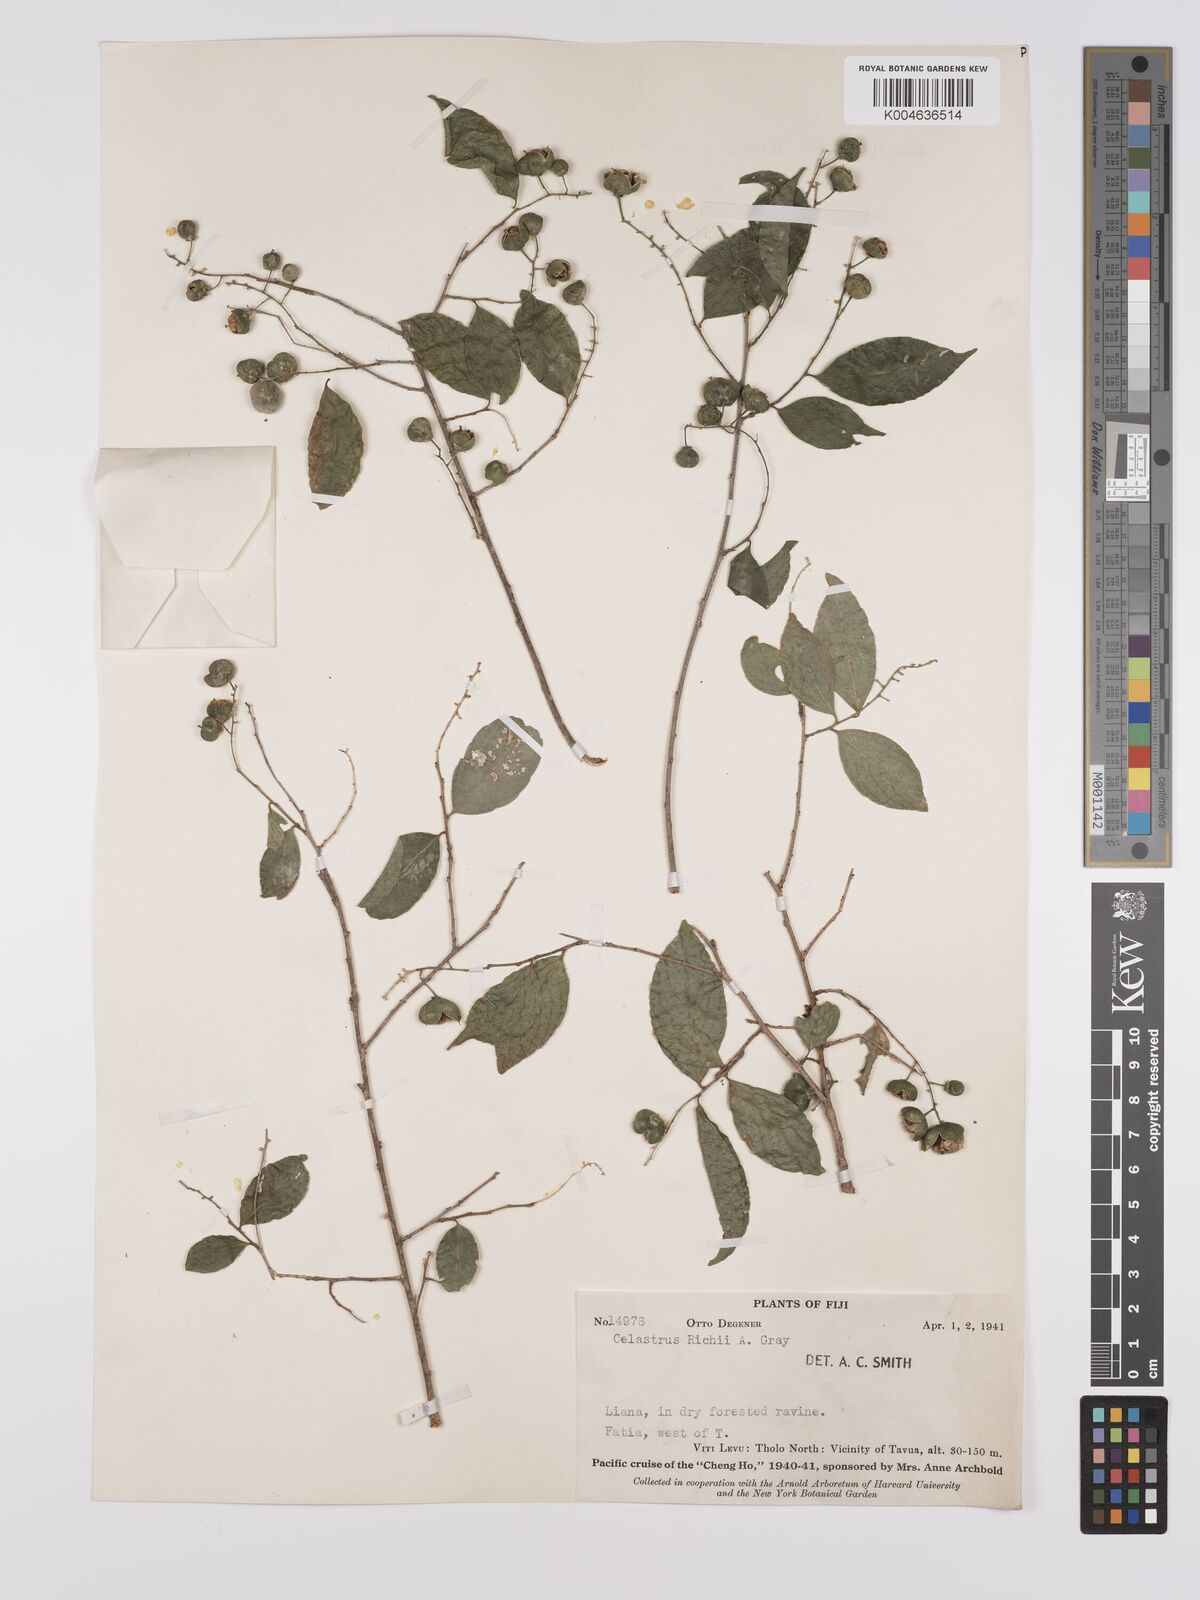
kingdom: Plantae
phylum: Tracheophyta
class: Magnoliopsida
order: Celastrales
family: Celastraceae
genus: Celastrus
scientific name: Celastrus richii
